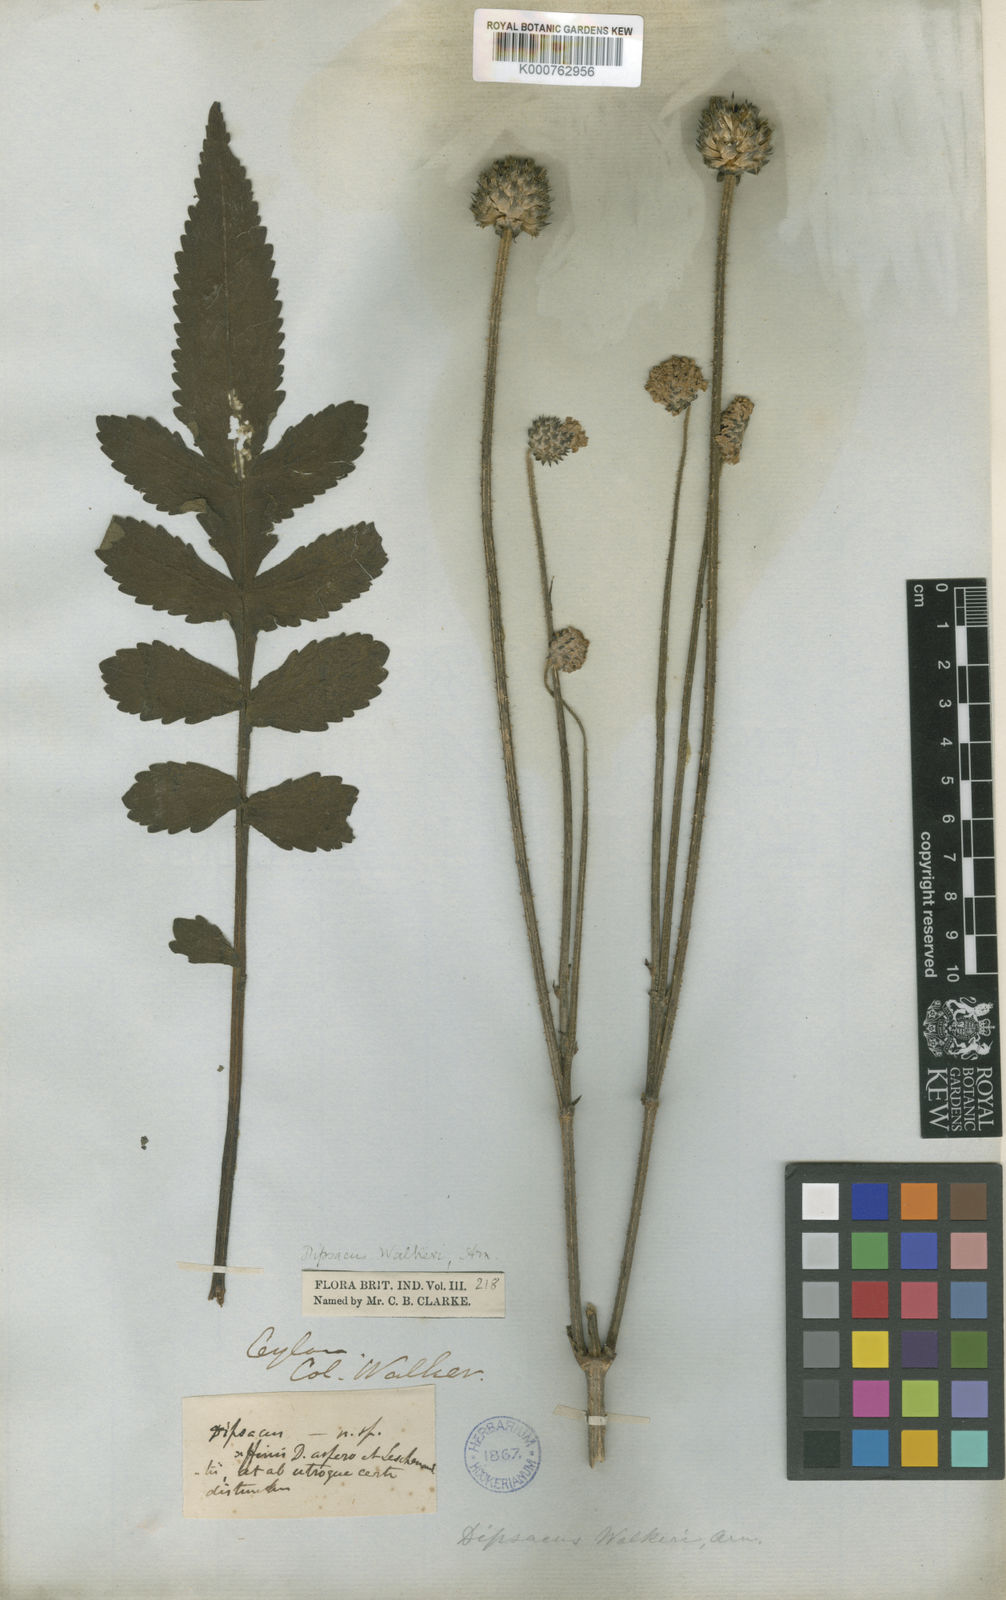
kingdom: Plantae
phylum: Tracheophyta
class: Magnoliopsida
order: Dipsacales
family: Caprifoliaceae
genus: Dipsacus
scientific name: Dipsacus walkeri
